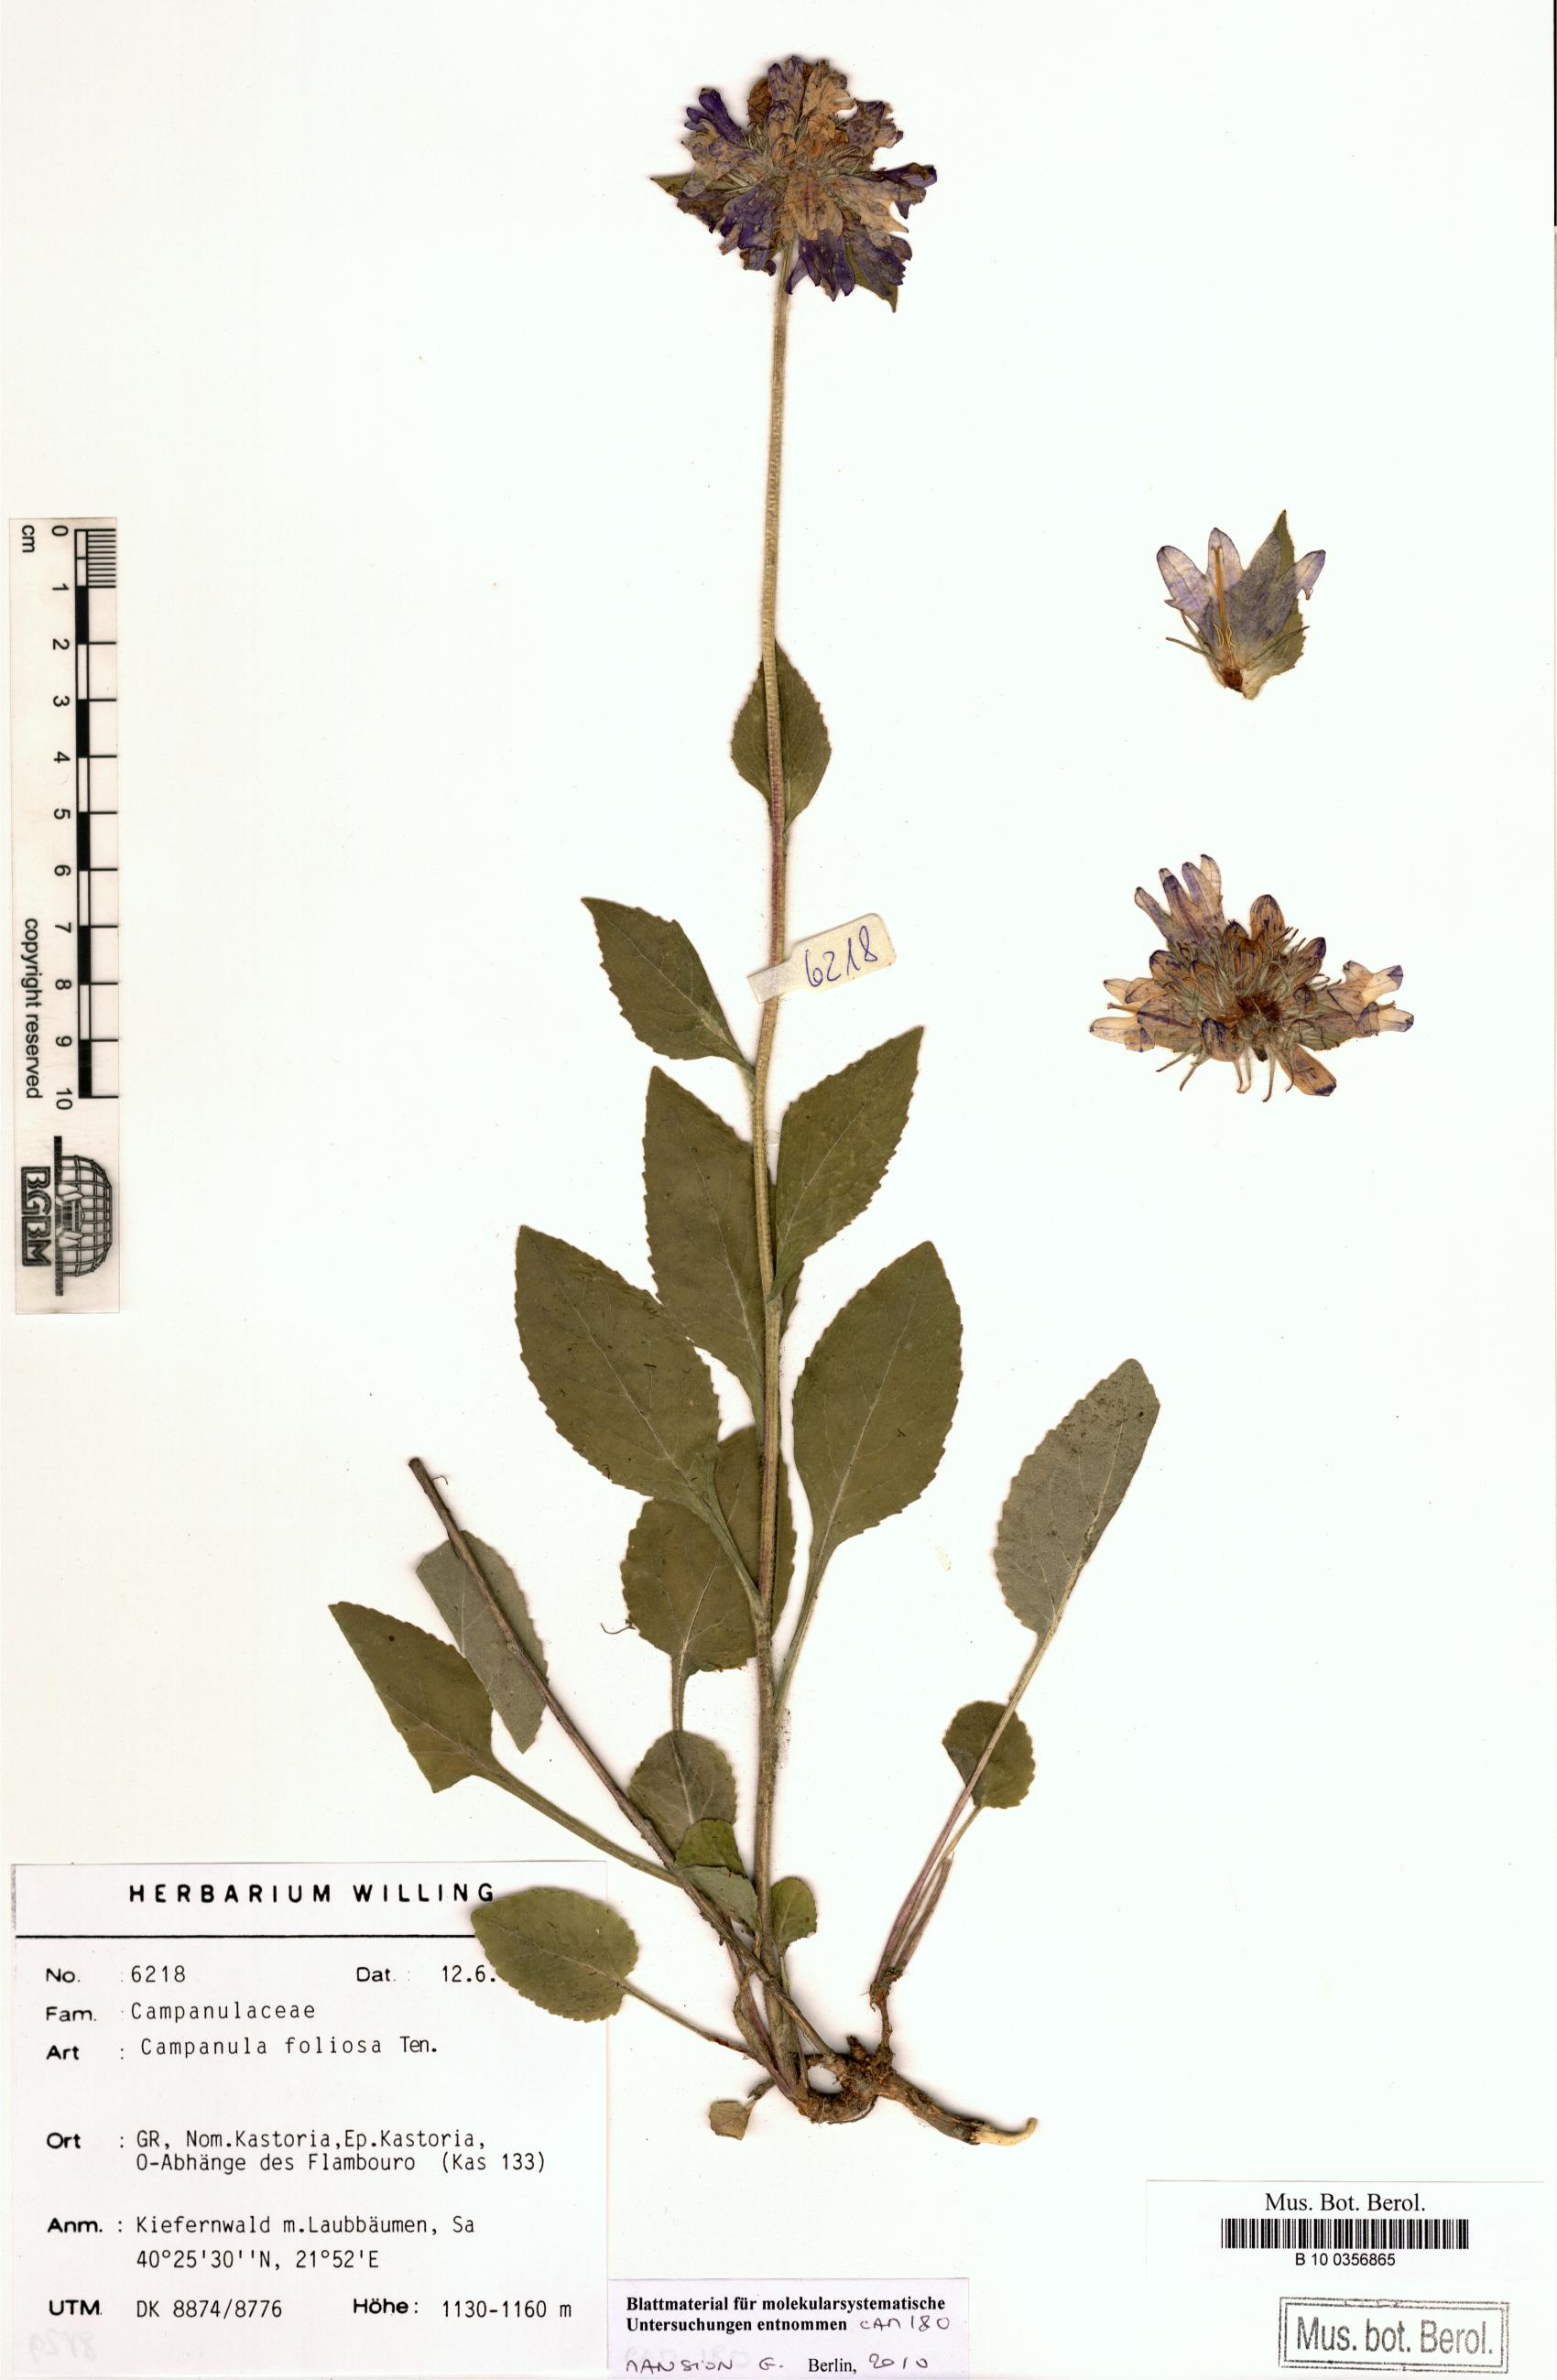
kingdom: Plantae
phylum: Tracheophyta
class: Magnoliopsida
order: Asterales
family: Campanulaceae
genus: Campanula
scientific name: Campanula foliosa
